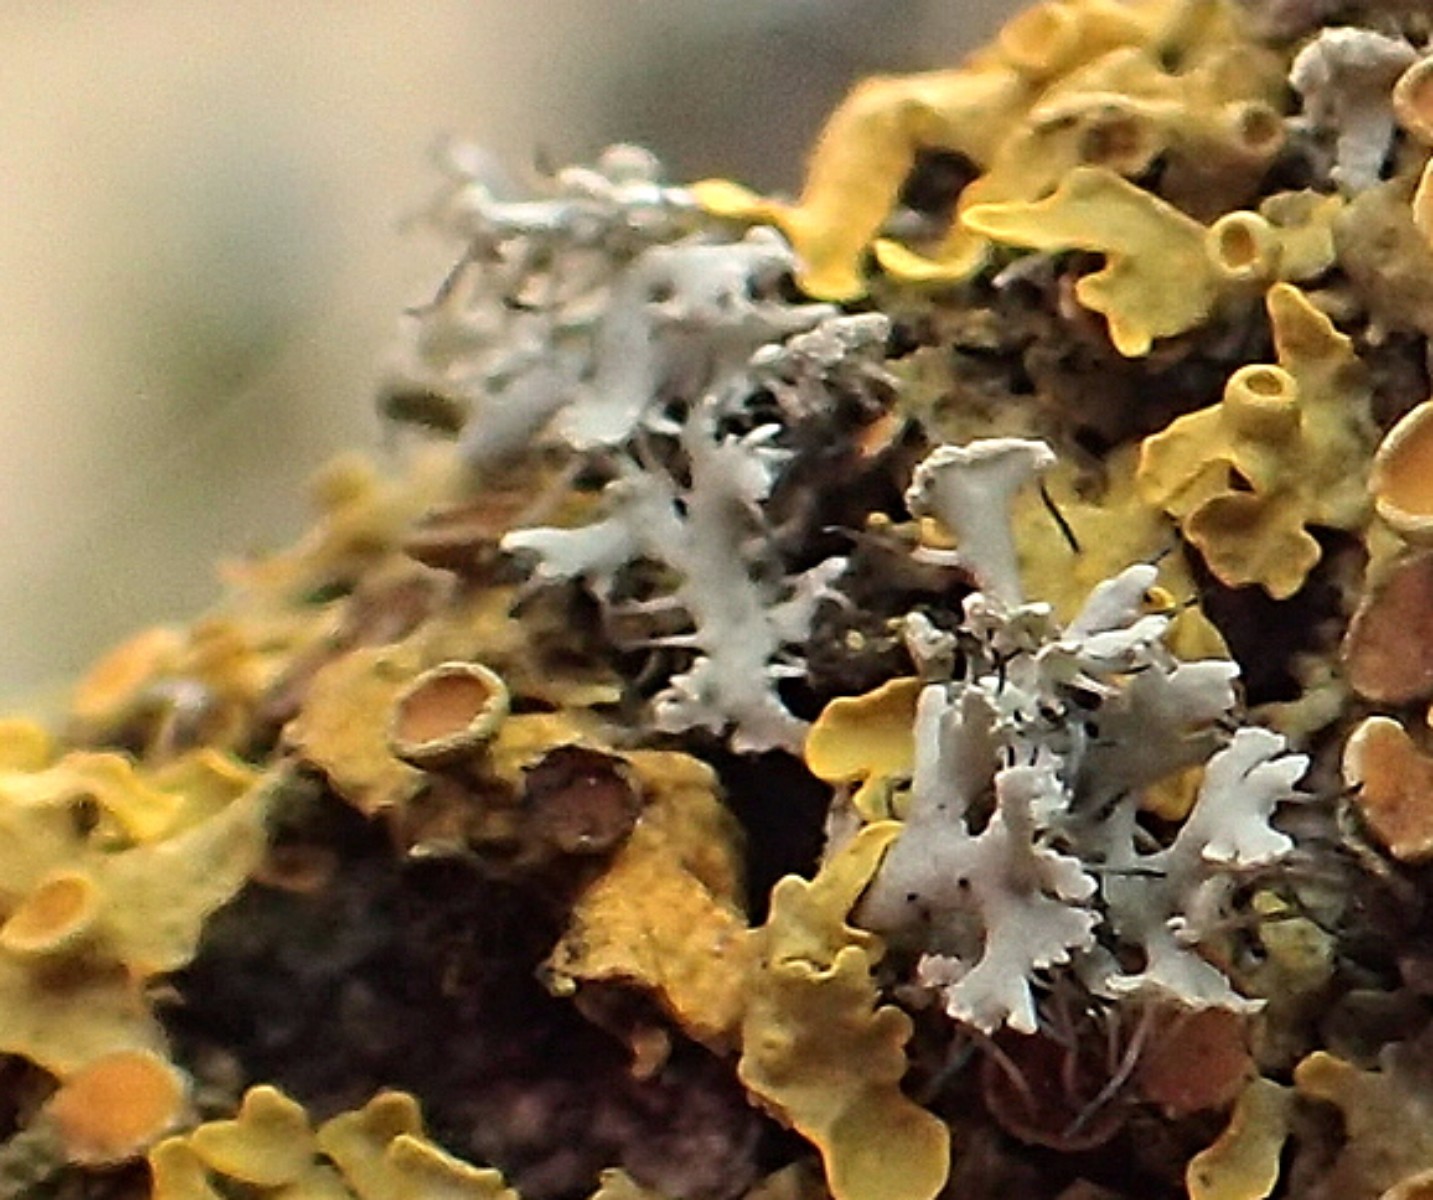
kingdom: Fungi
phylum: Ascomycota
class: Lecanoromycetes
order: Caliciales
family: Physciaceae
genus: Physcia
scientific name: Physcia tenella
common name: spæd rosetlav
